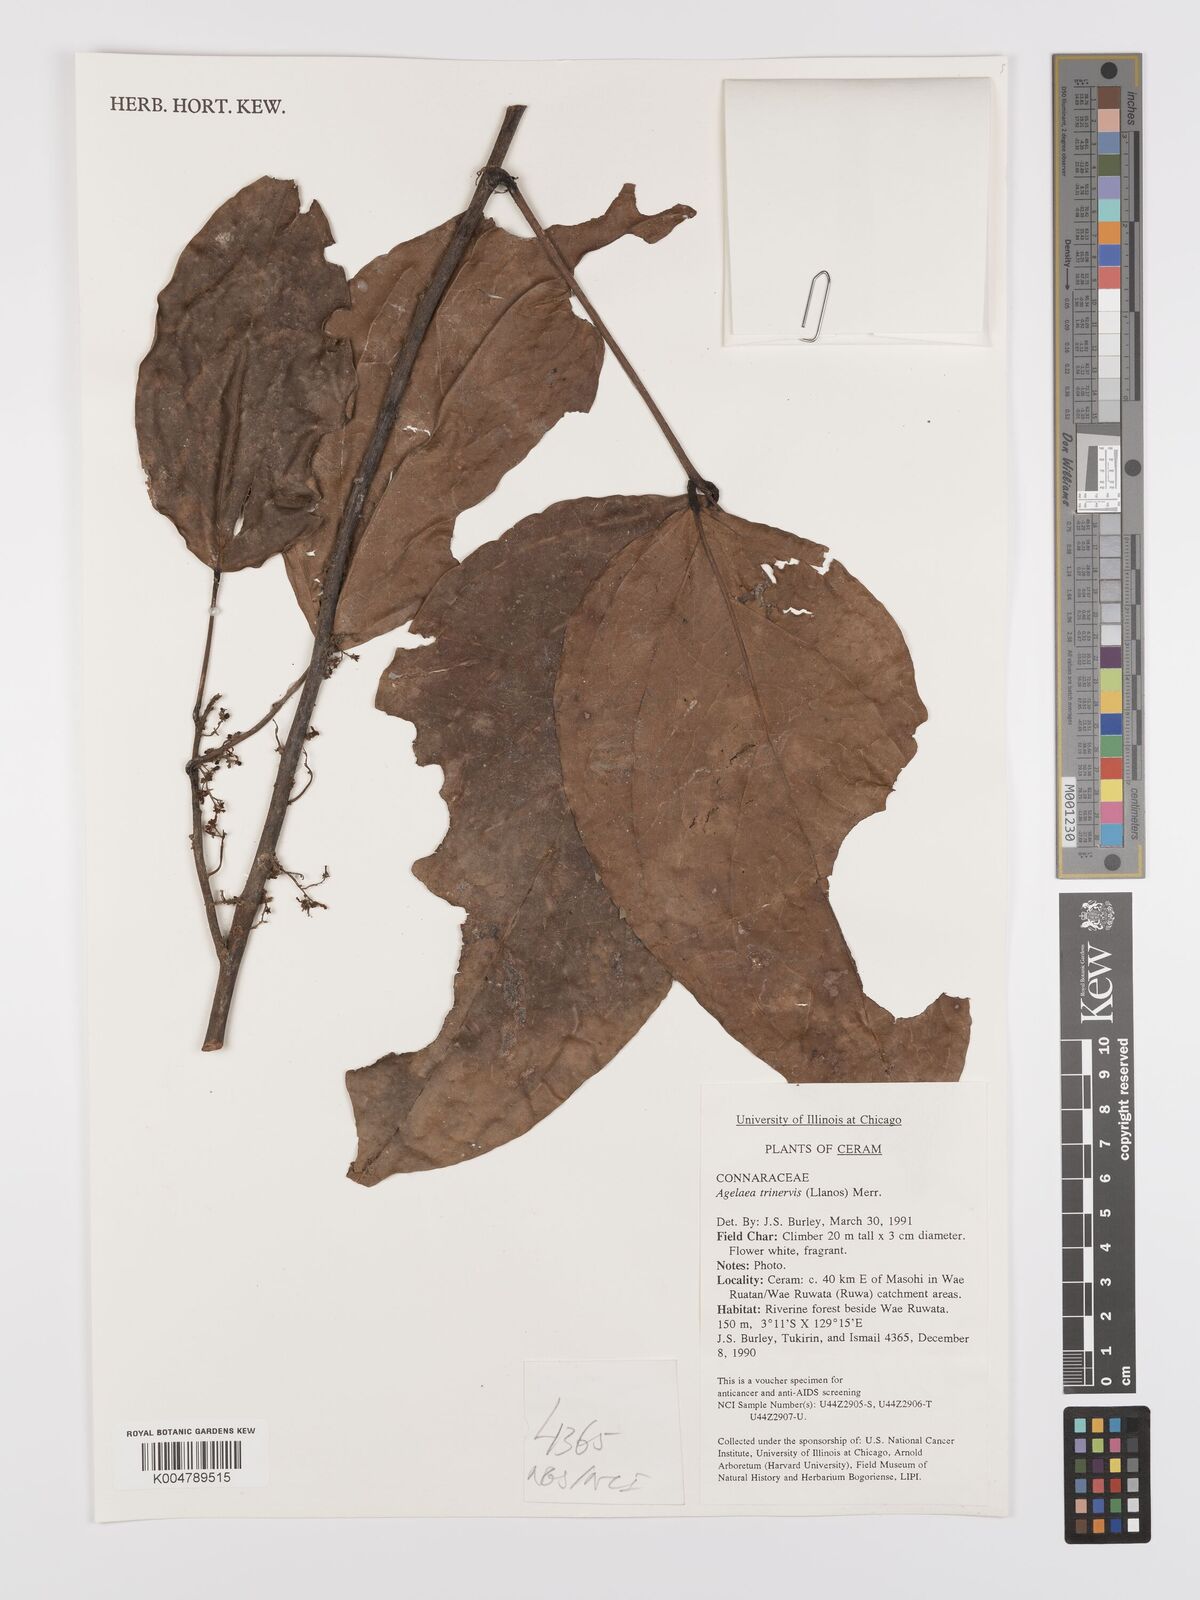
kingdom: Plantae
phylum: Tracheophyta
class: Magnoliopsida
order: Oxalidales
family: Connaraceae
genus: Agelaea
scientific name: Agelaea trinervis
